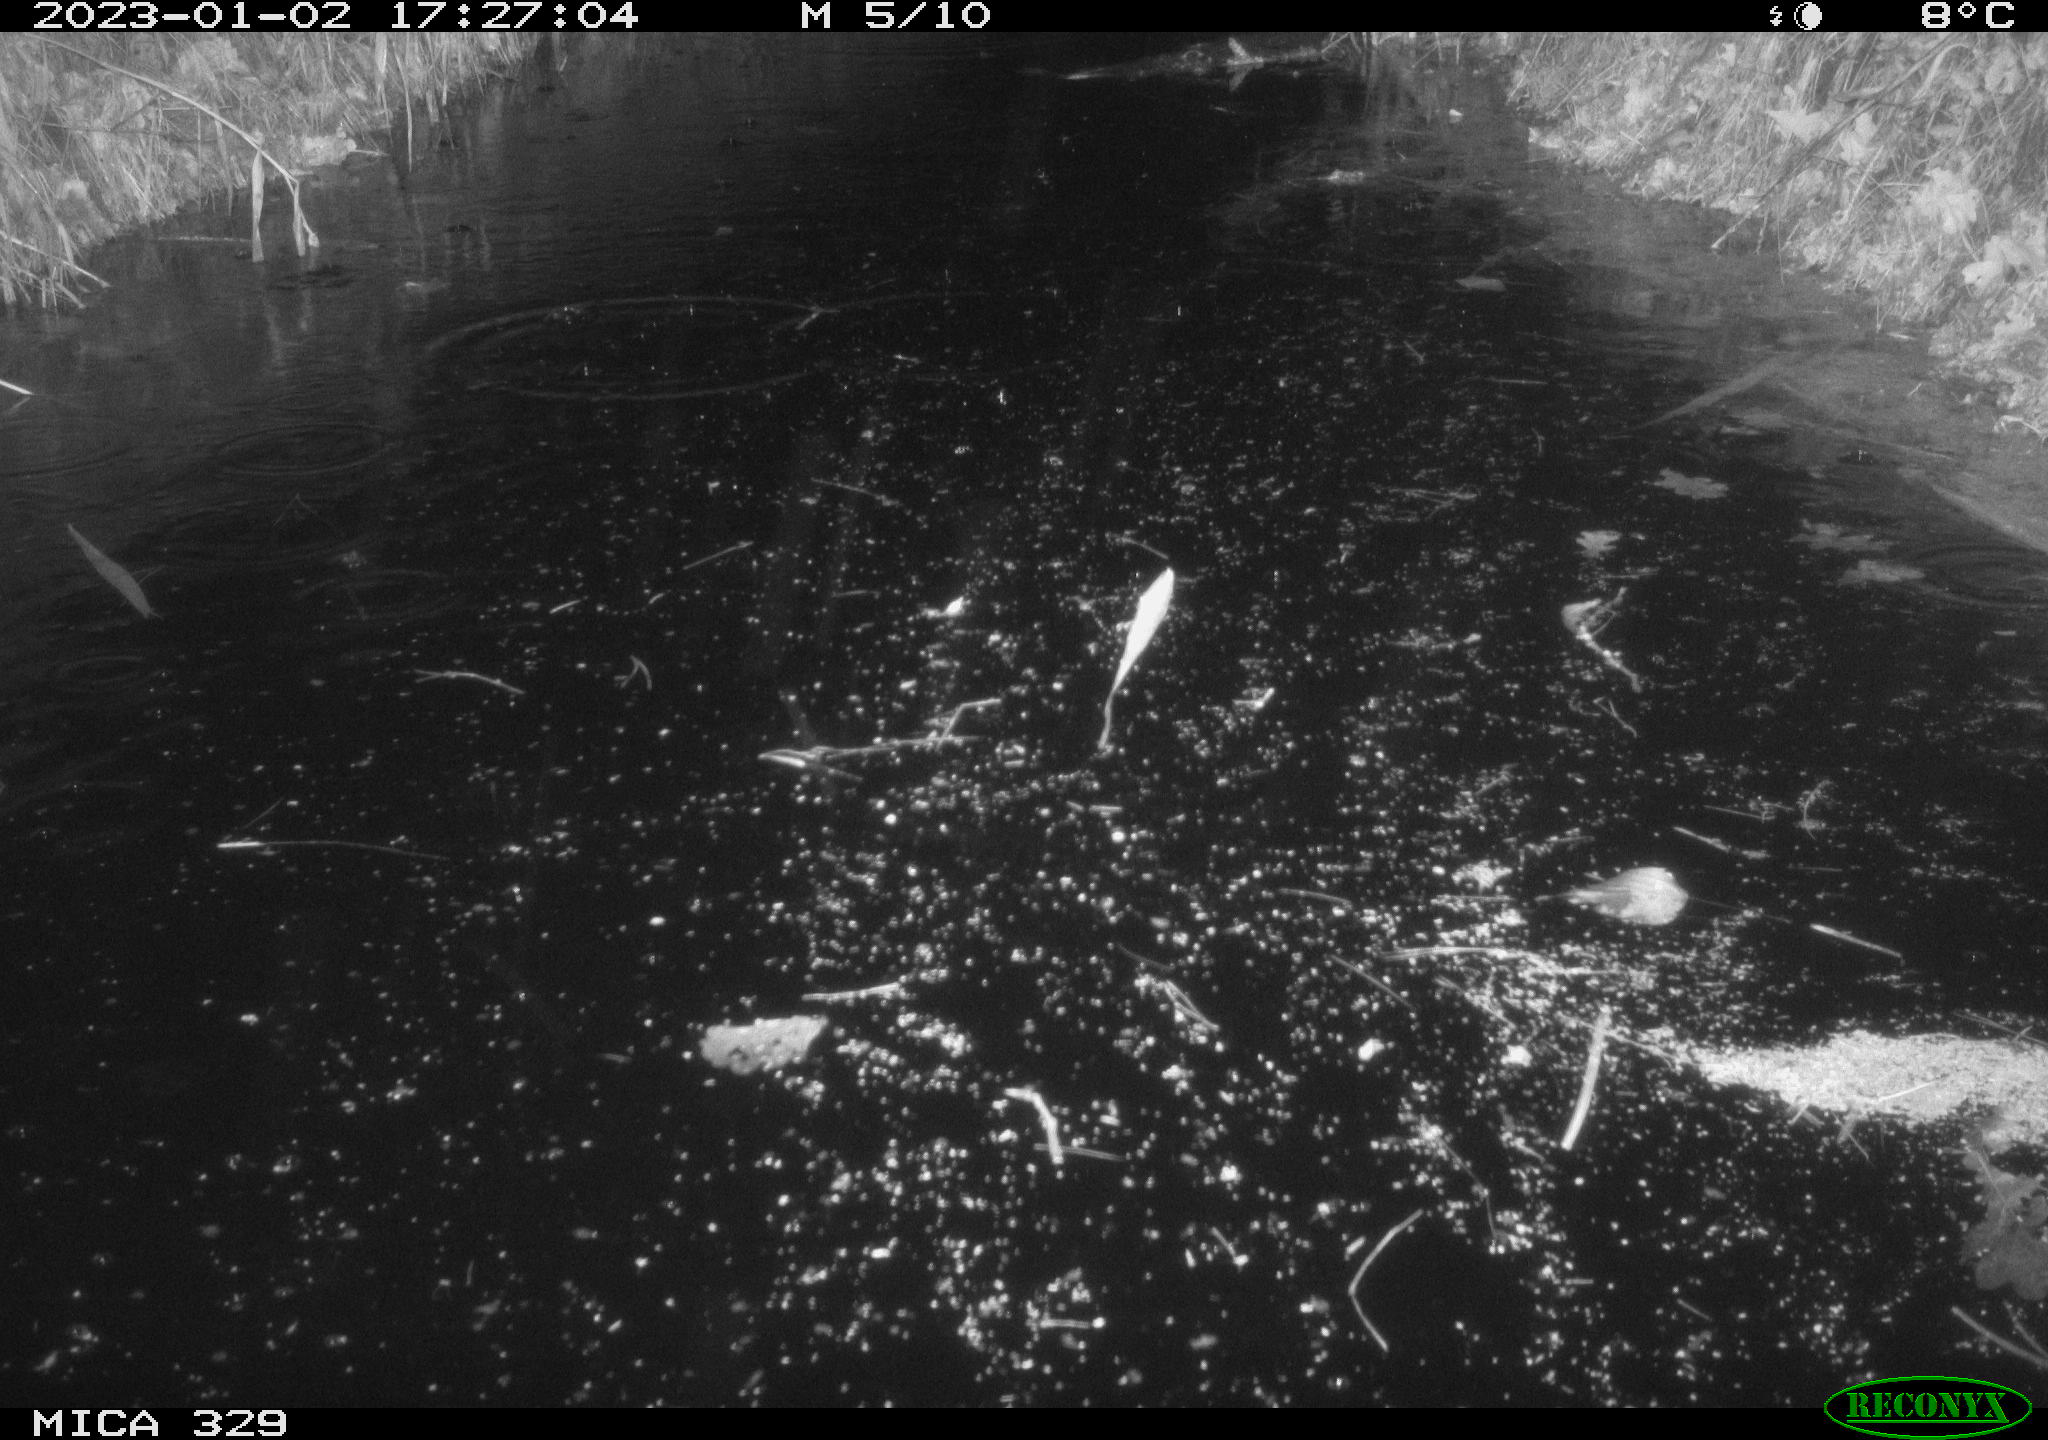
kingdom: Animalia
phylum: Chordata
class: Aves
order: Gruiformes
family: Rallidae
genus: Gallinula
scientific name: Gallinula chloropus
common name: Common moorhen
